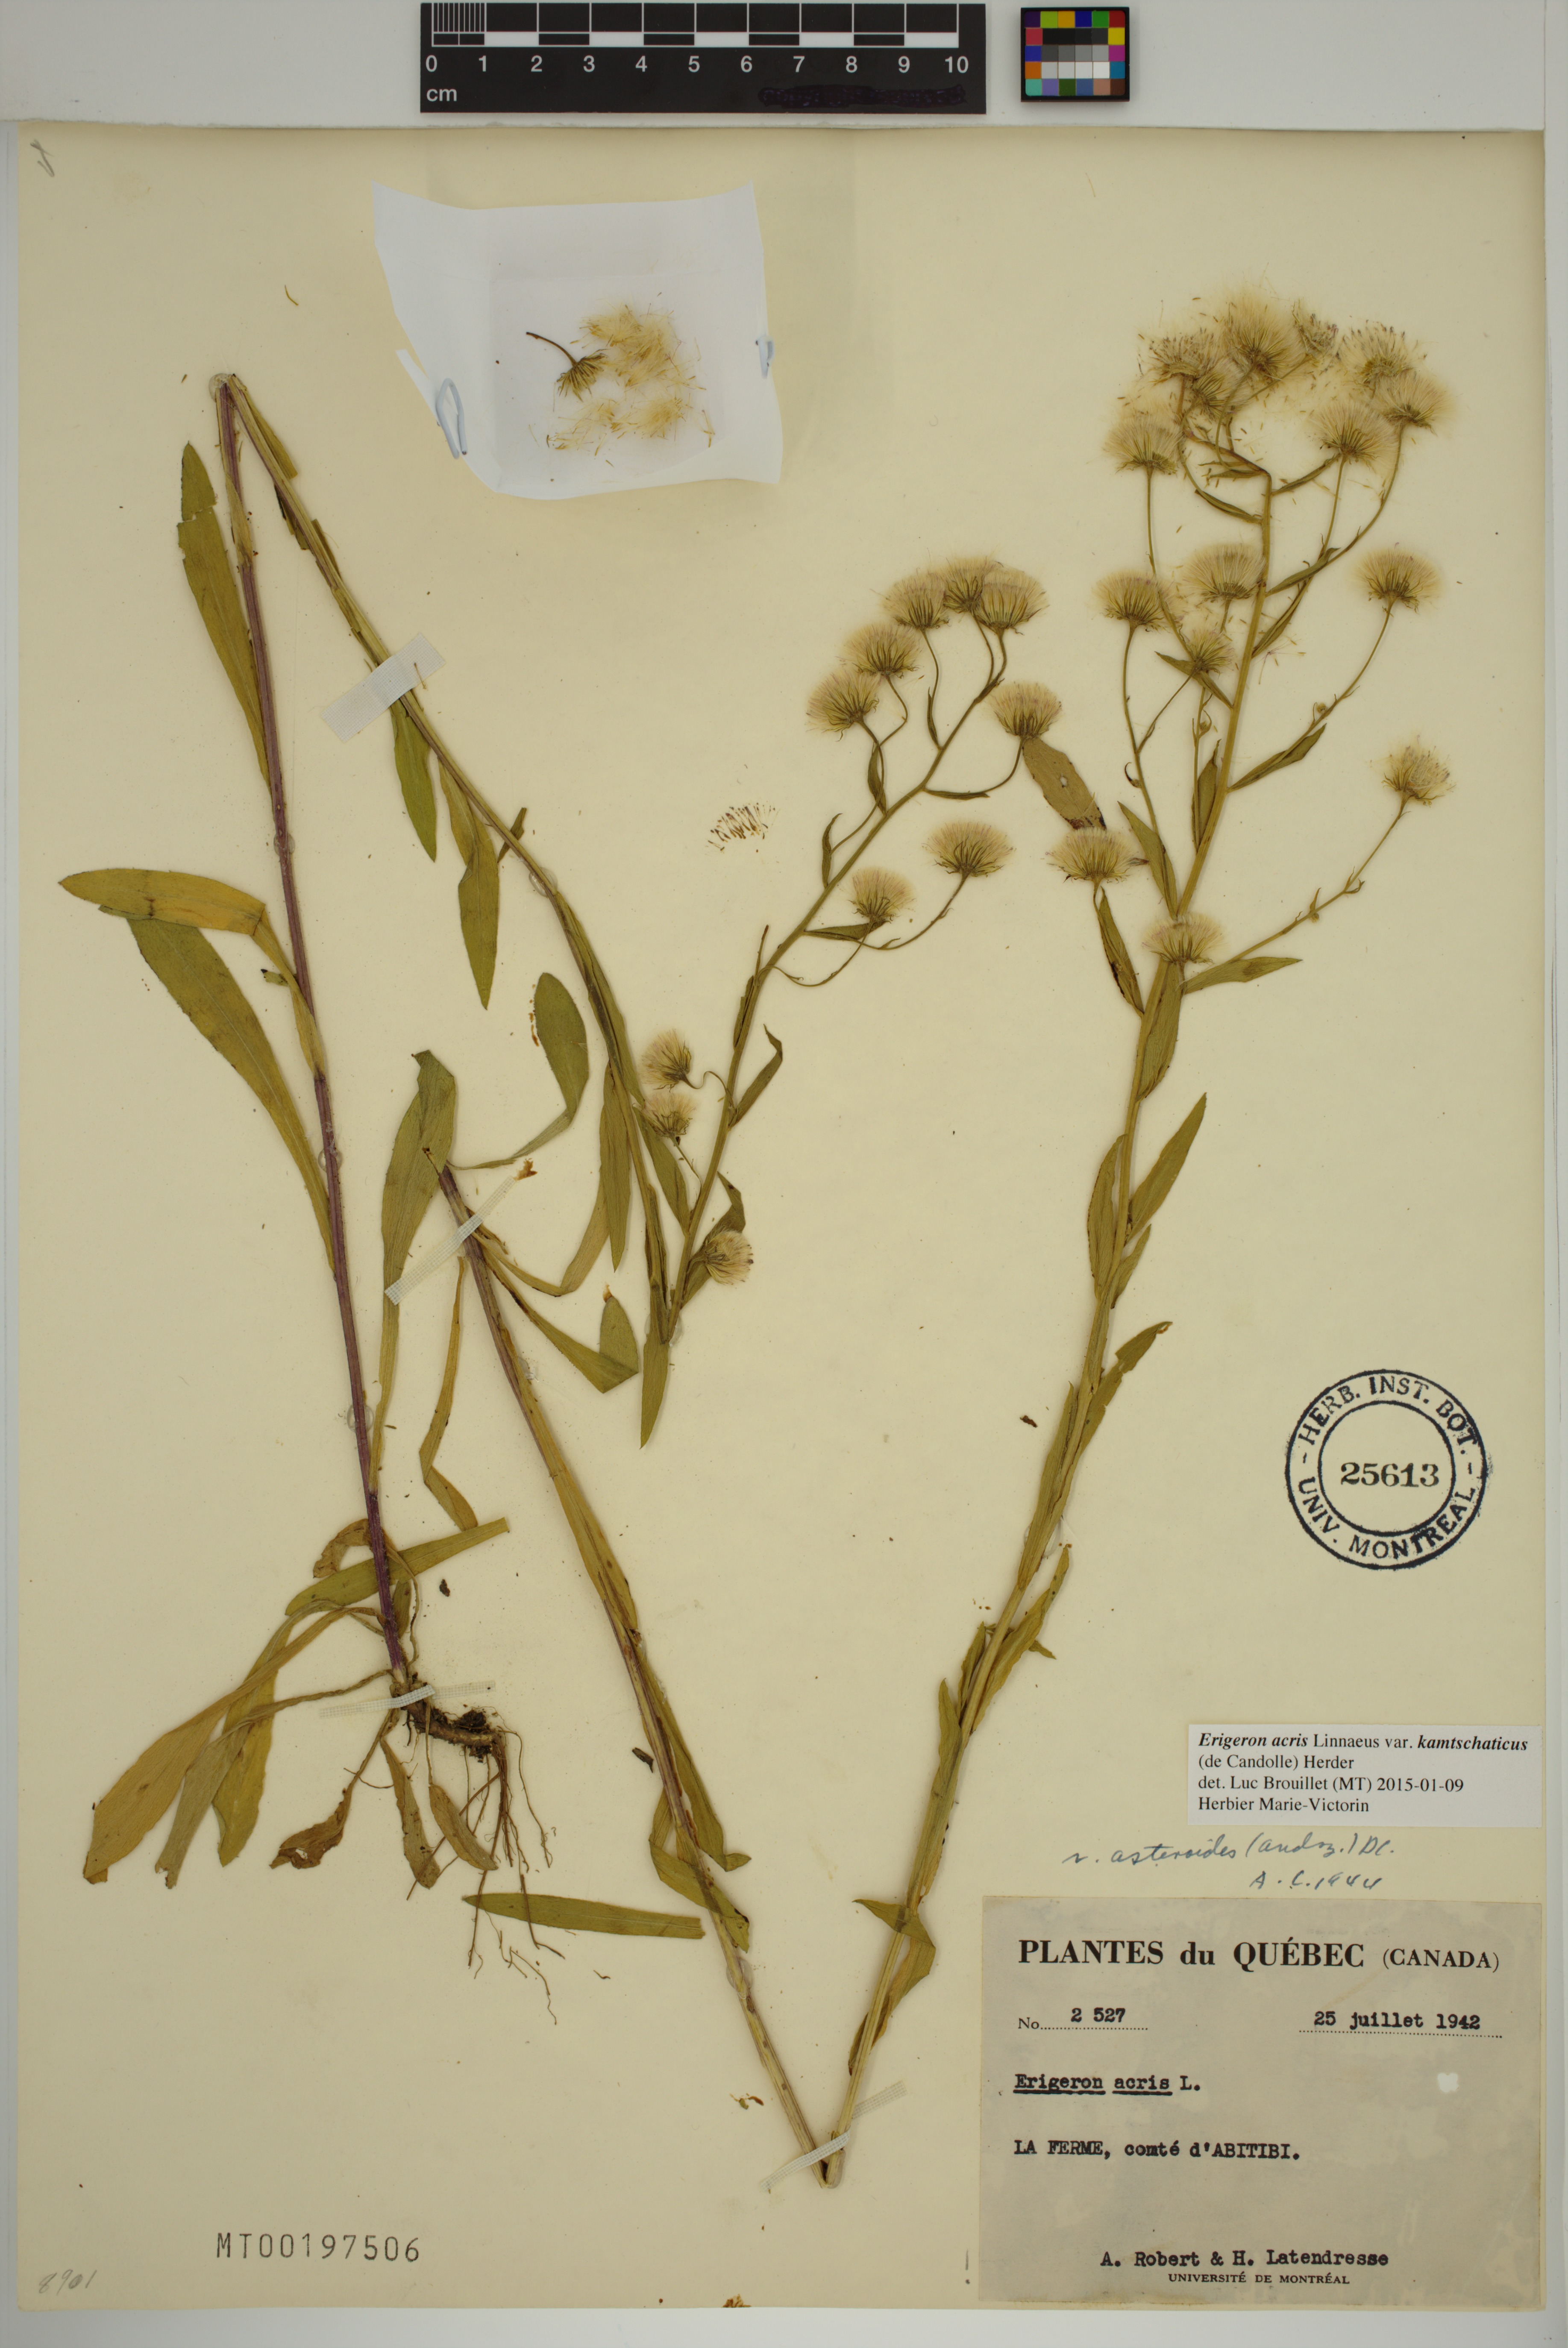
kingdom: Plantae
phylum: Tracheophyta
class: Magnoliopsida
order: Asterales
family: Asteraceae
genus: Erigeron
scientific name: Erigeron kamtschaticus
